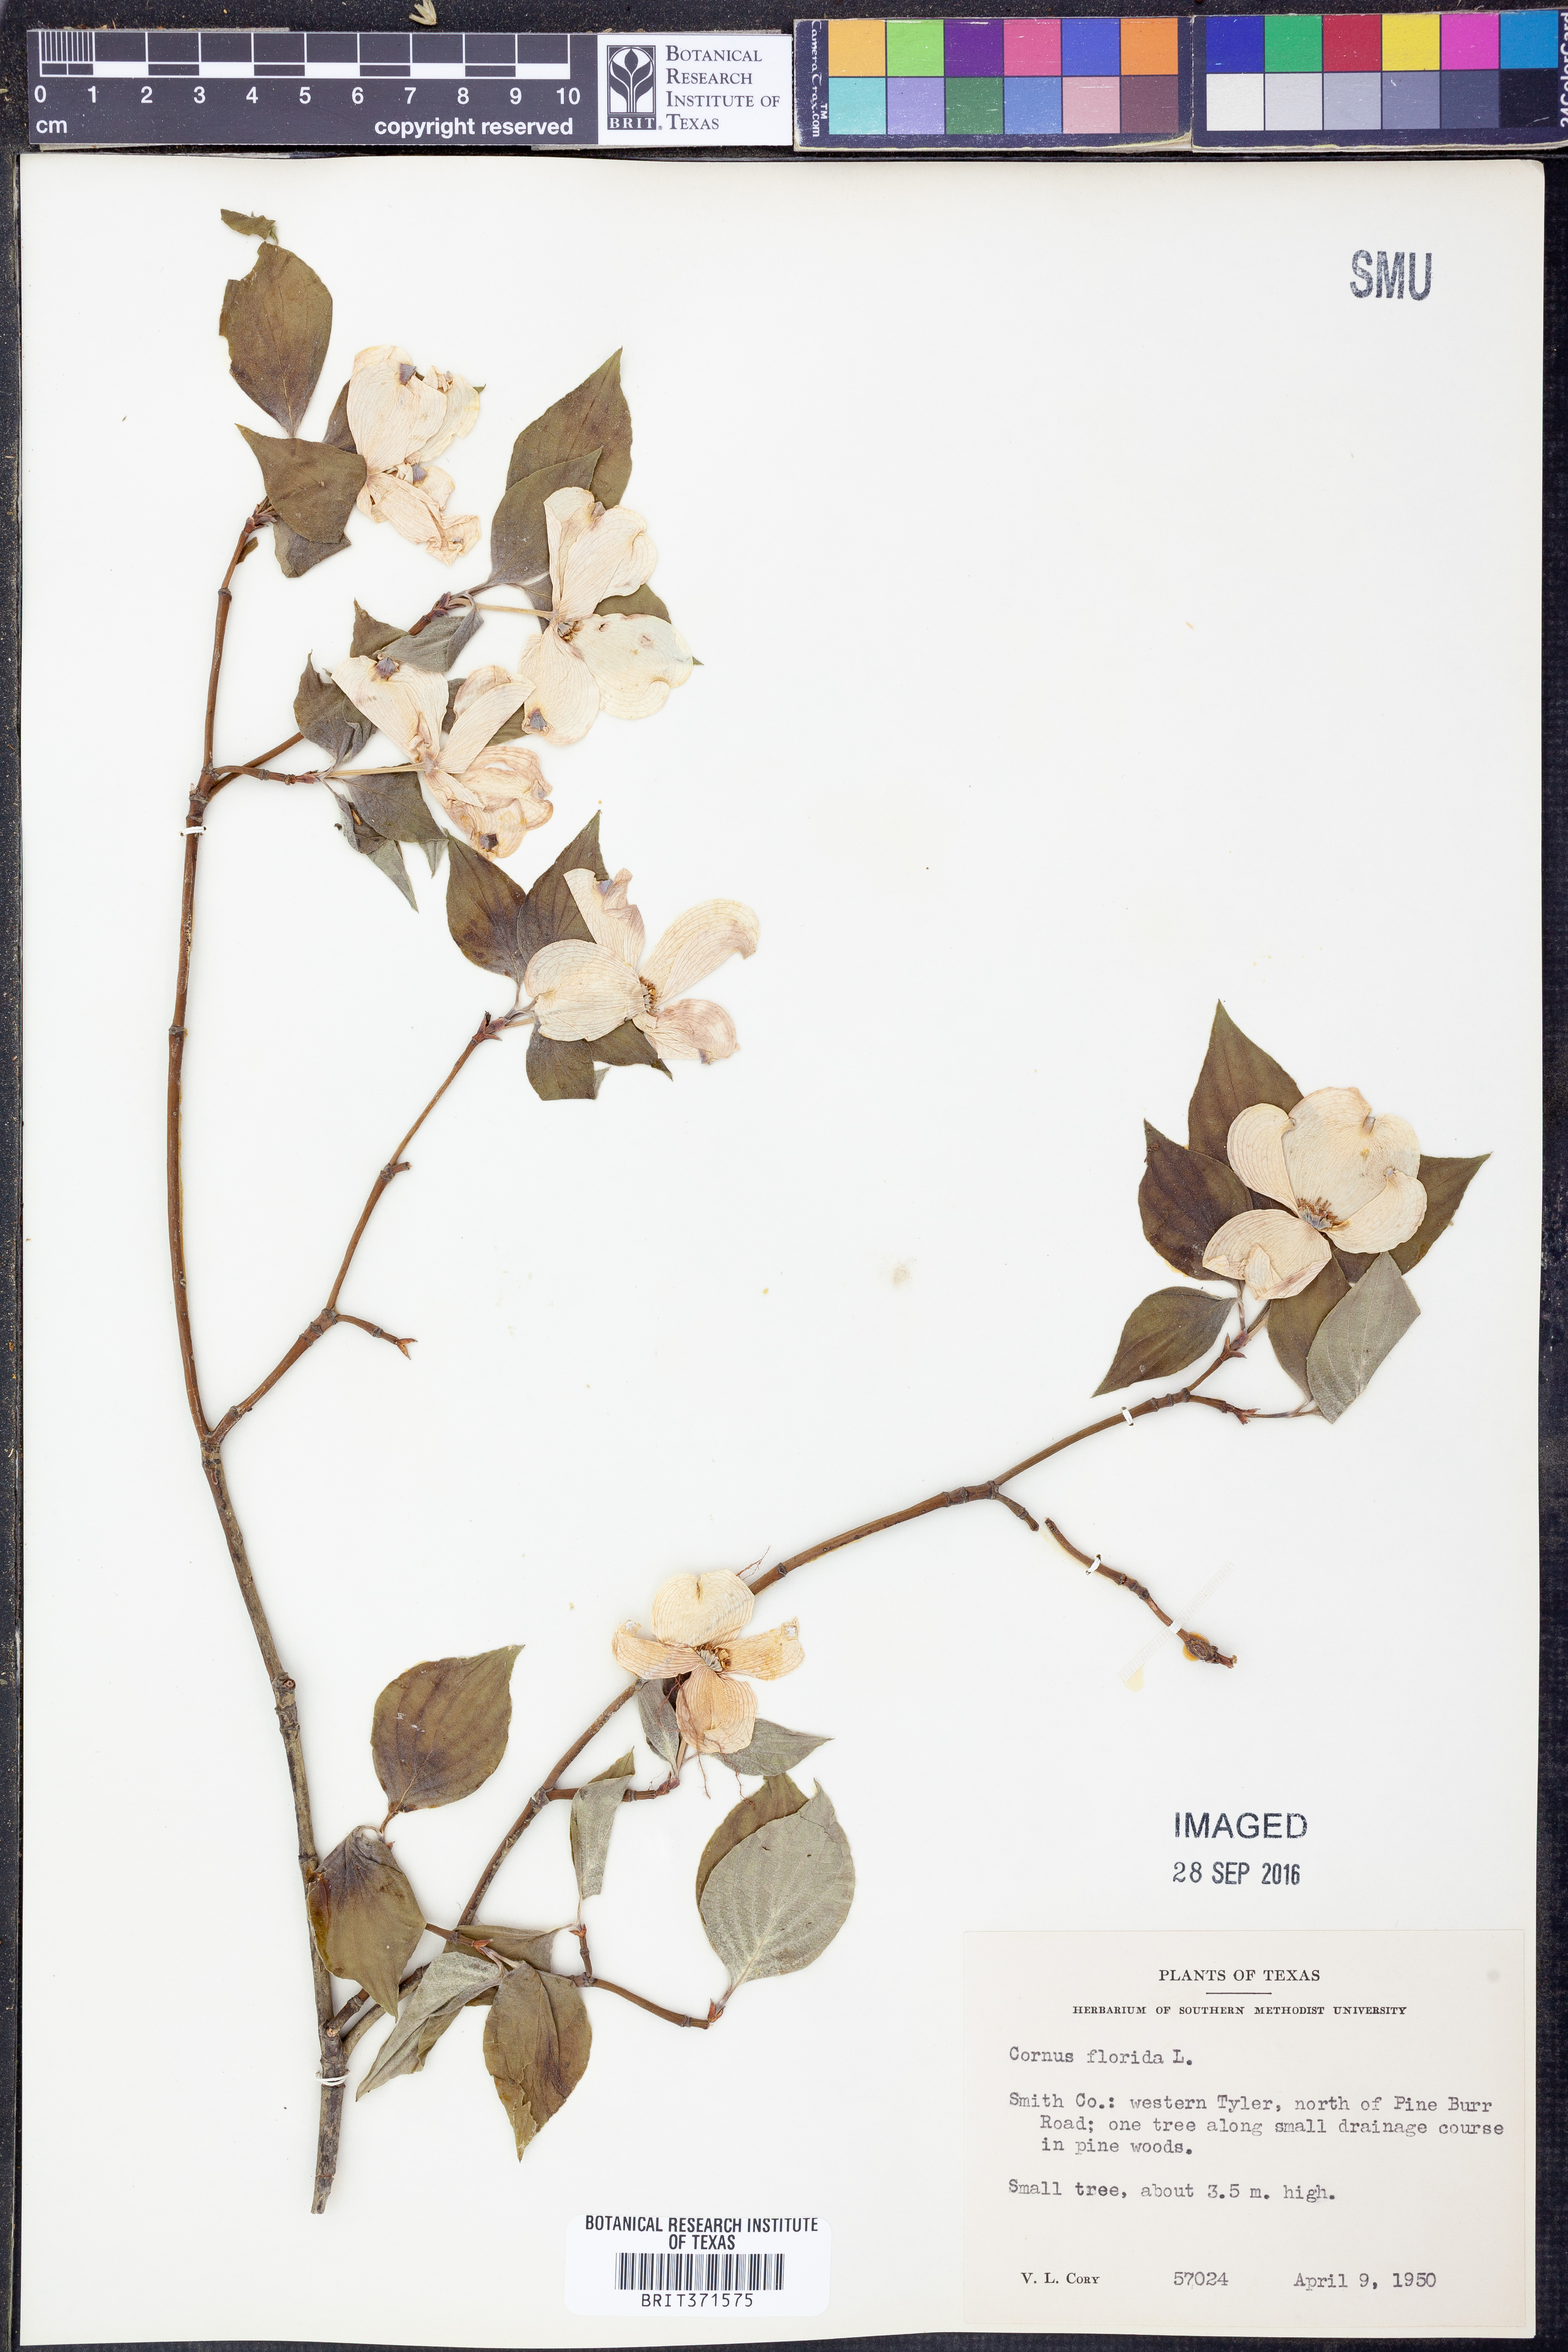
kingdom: Plantae
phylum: Tracheophyta
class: Magnoliopsida
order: Cornales
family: Cornaceae
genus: Cornus
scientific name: Cornus florida
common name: Flowering dogwood
